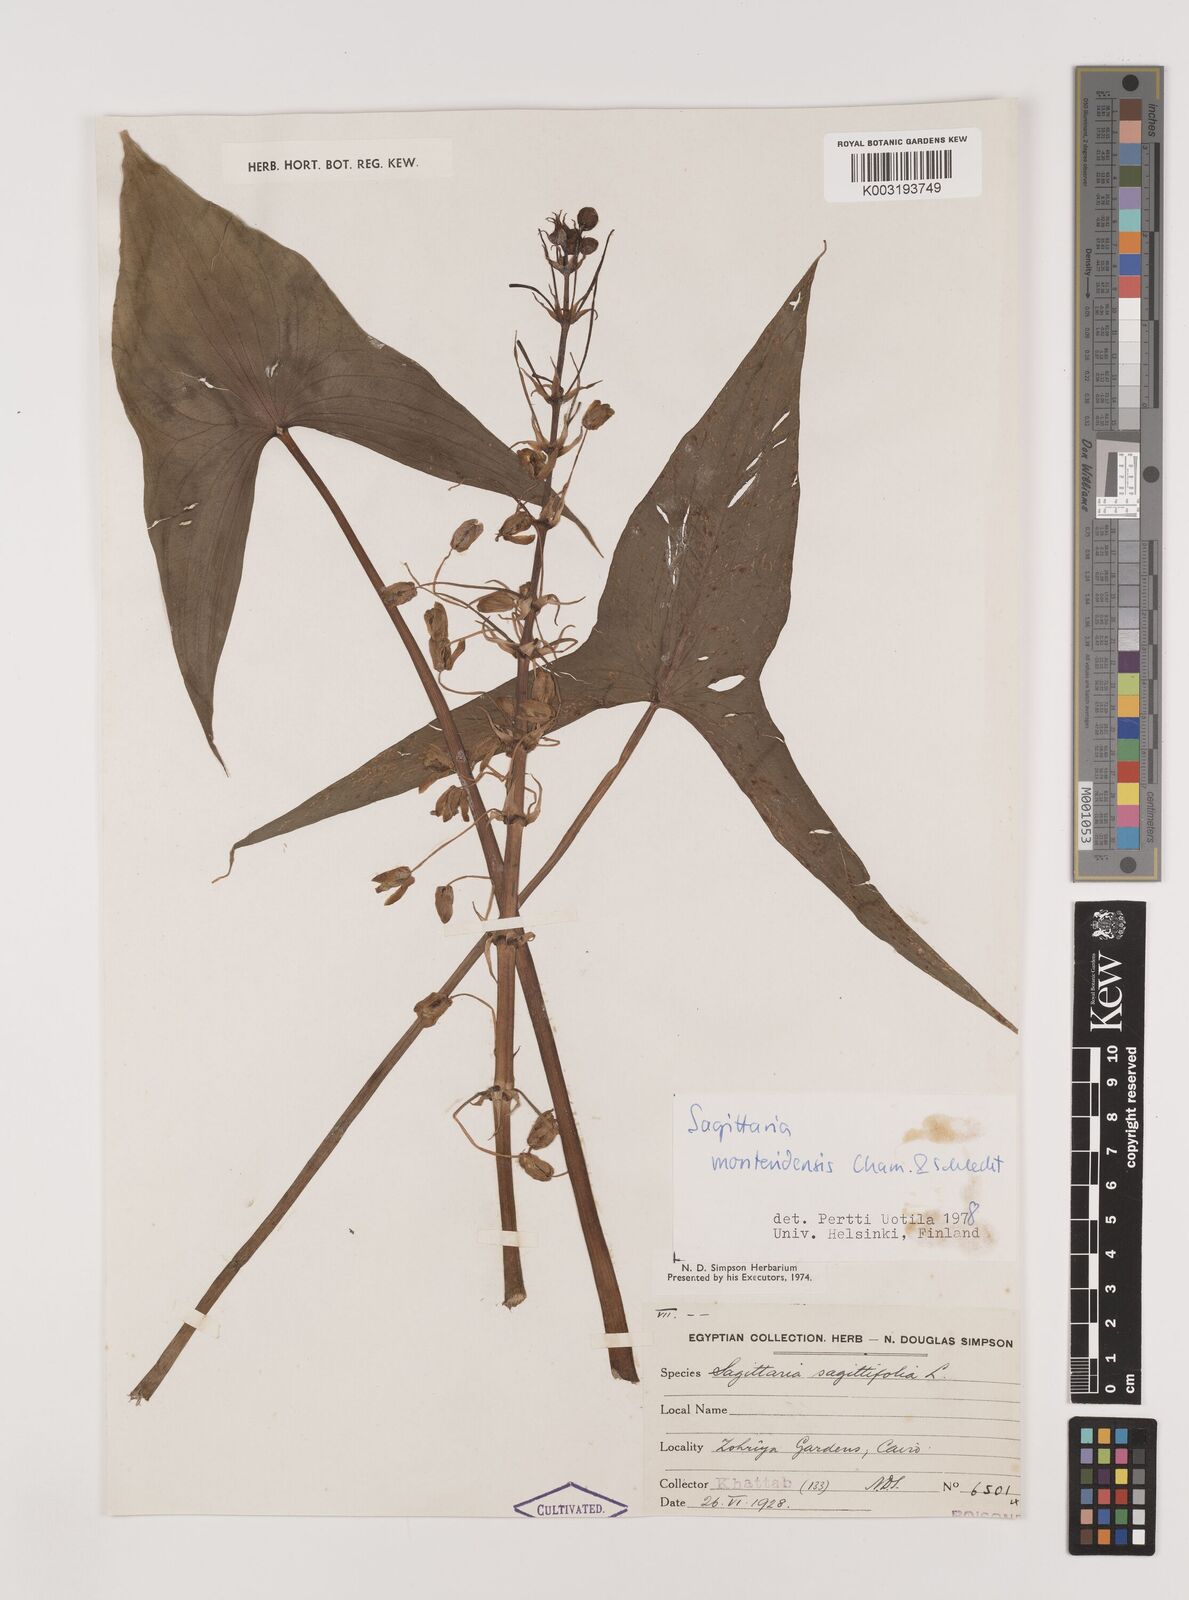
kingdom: Plantae
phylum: Tracheophyta
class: Liliopsida
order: Alismatales
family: Alismataceae
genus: Sagittaria
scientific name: Sagittaria montevidensis
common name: Giant arrowhead
